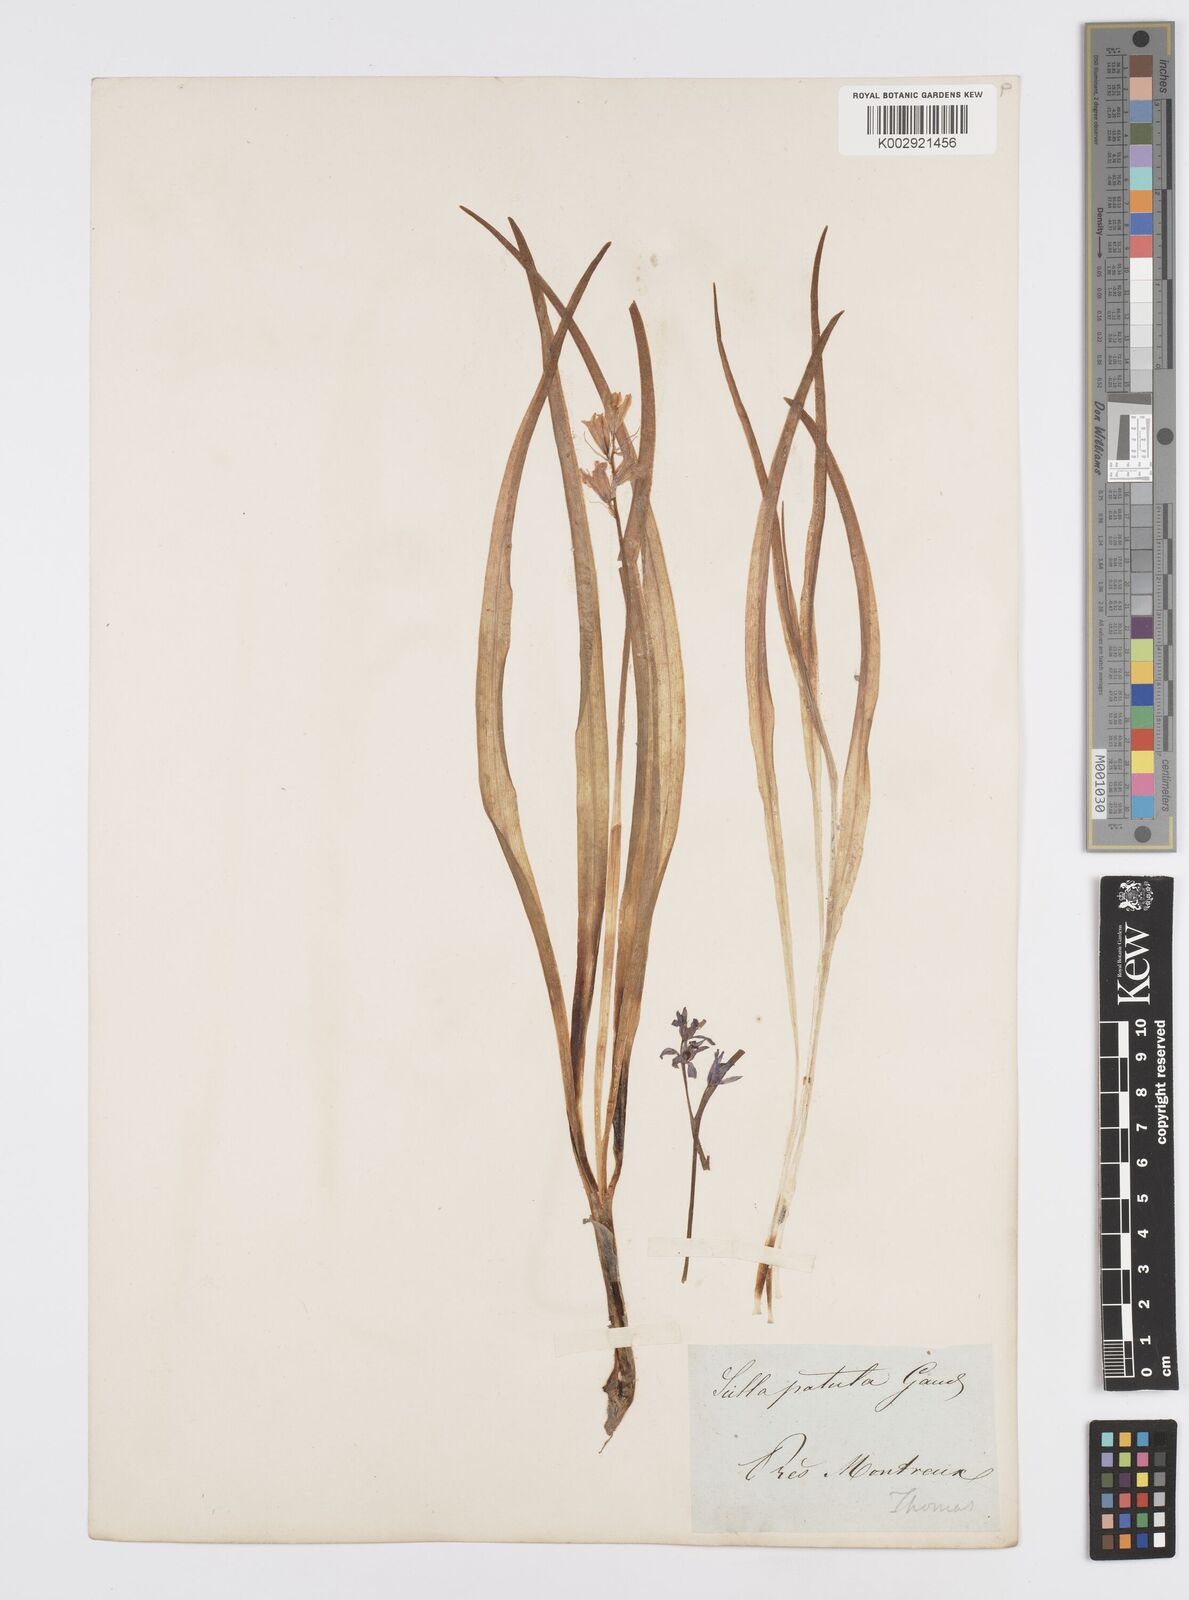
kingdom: Plantae
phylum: Tracheophyta
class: Liliopsida
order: Asparagales
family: Asparagaceae
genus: Hyacinthoides
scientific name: Hyacinthoides hispanica
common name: Spanish bluebell
